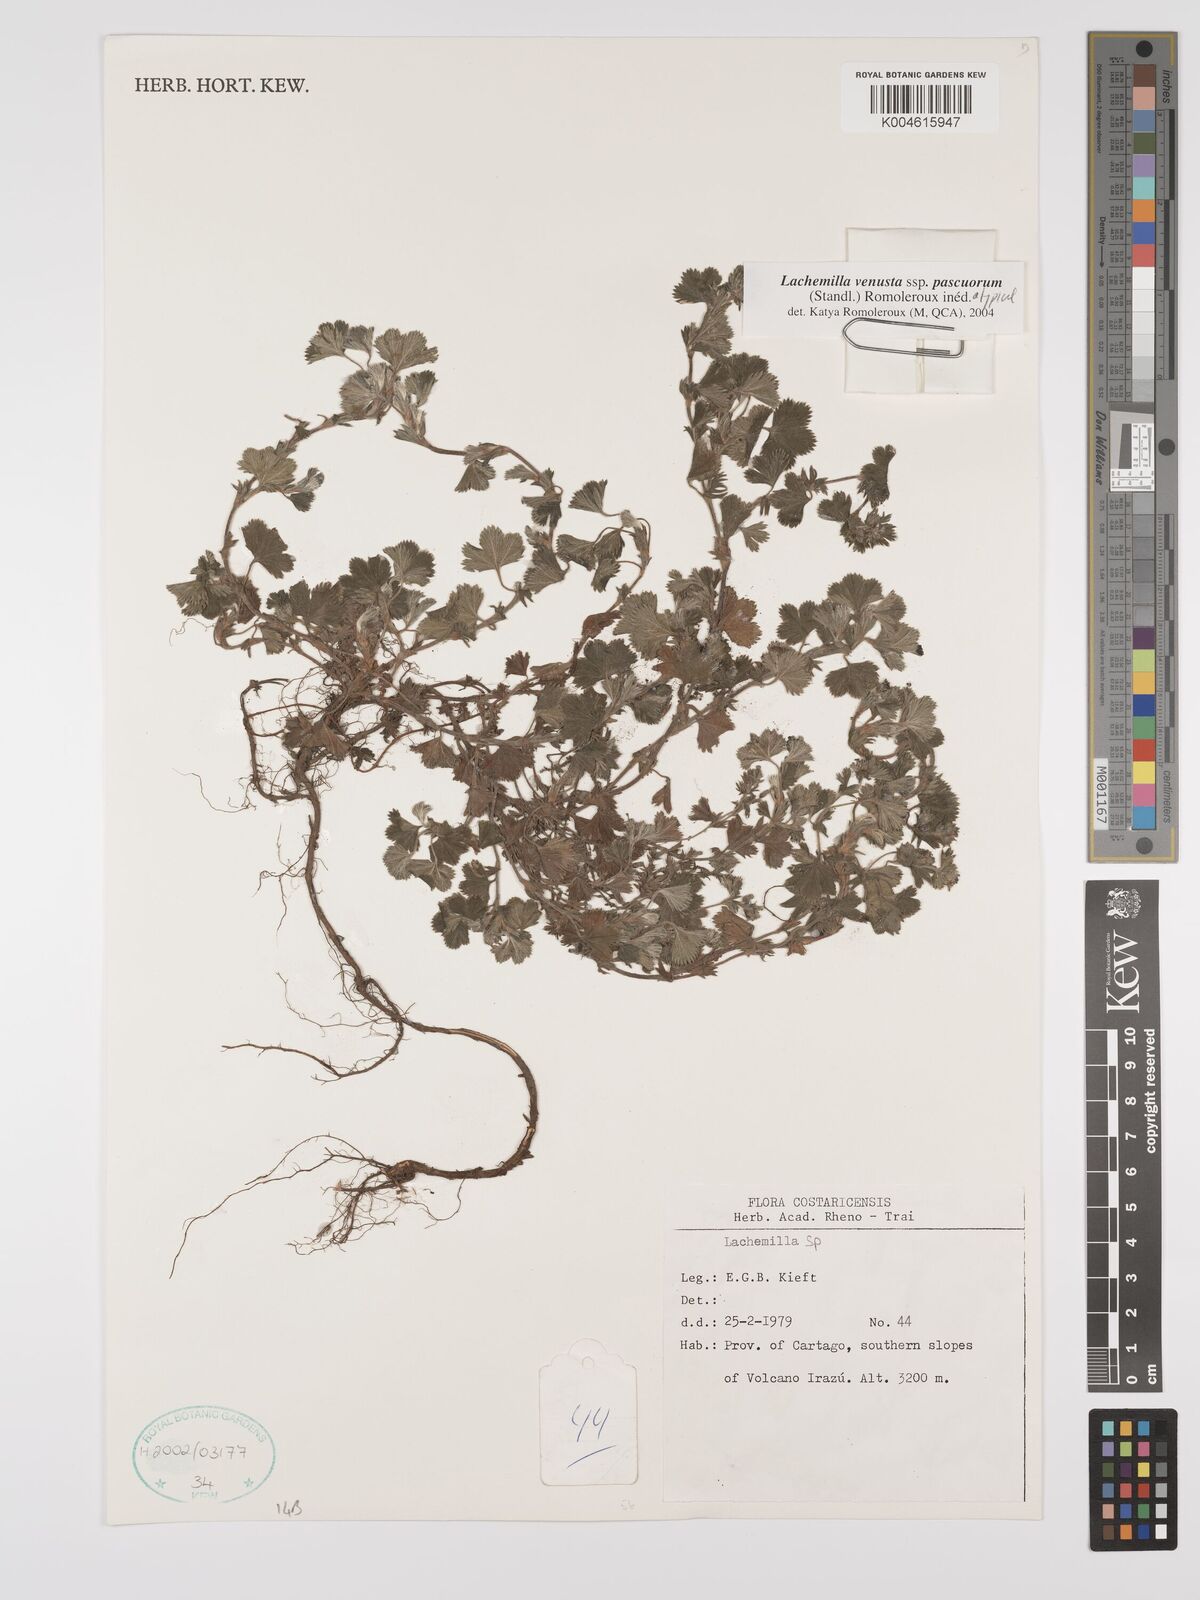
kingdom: Plantae
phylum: Tracheophyta
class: Magnoliopsida
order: Rosales
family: Rosaceae
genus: Lachemilla
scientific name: Lachemilla venusta
